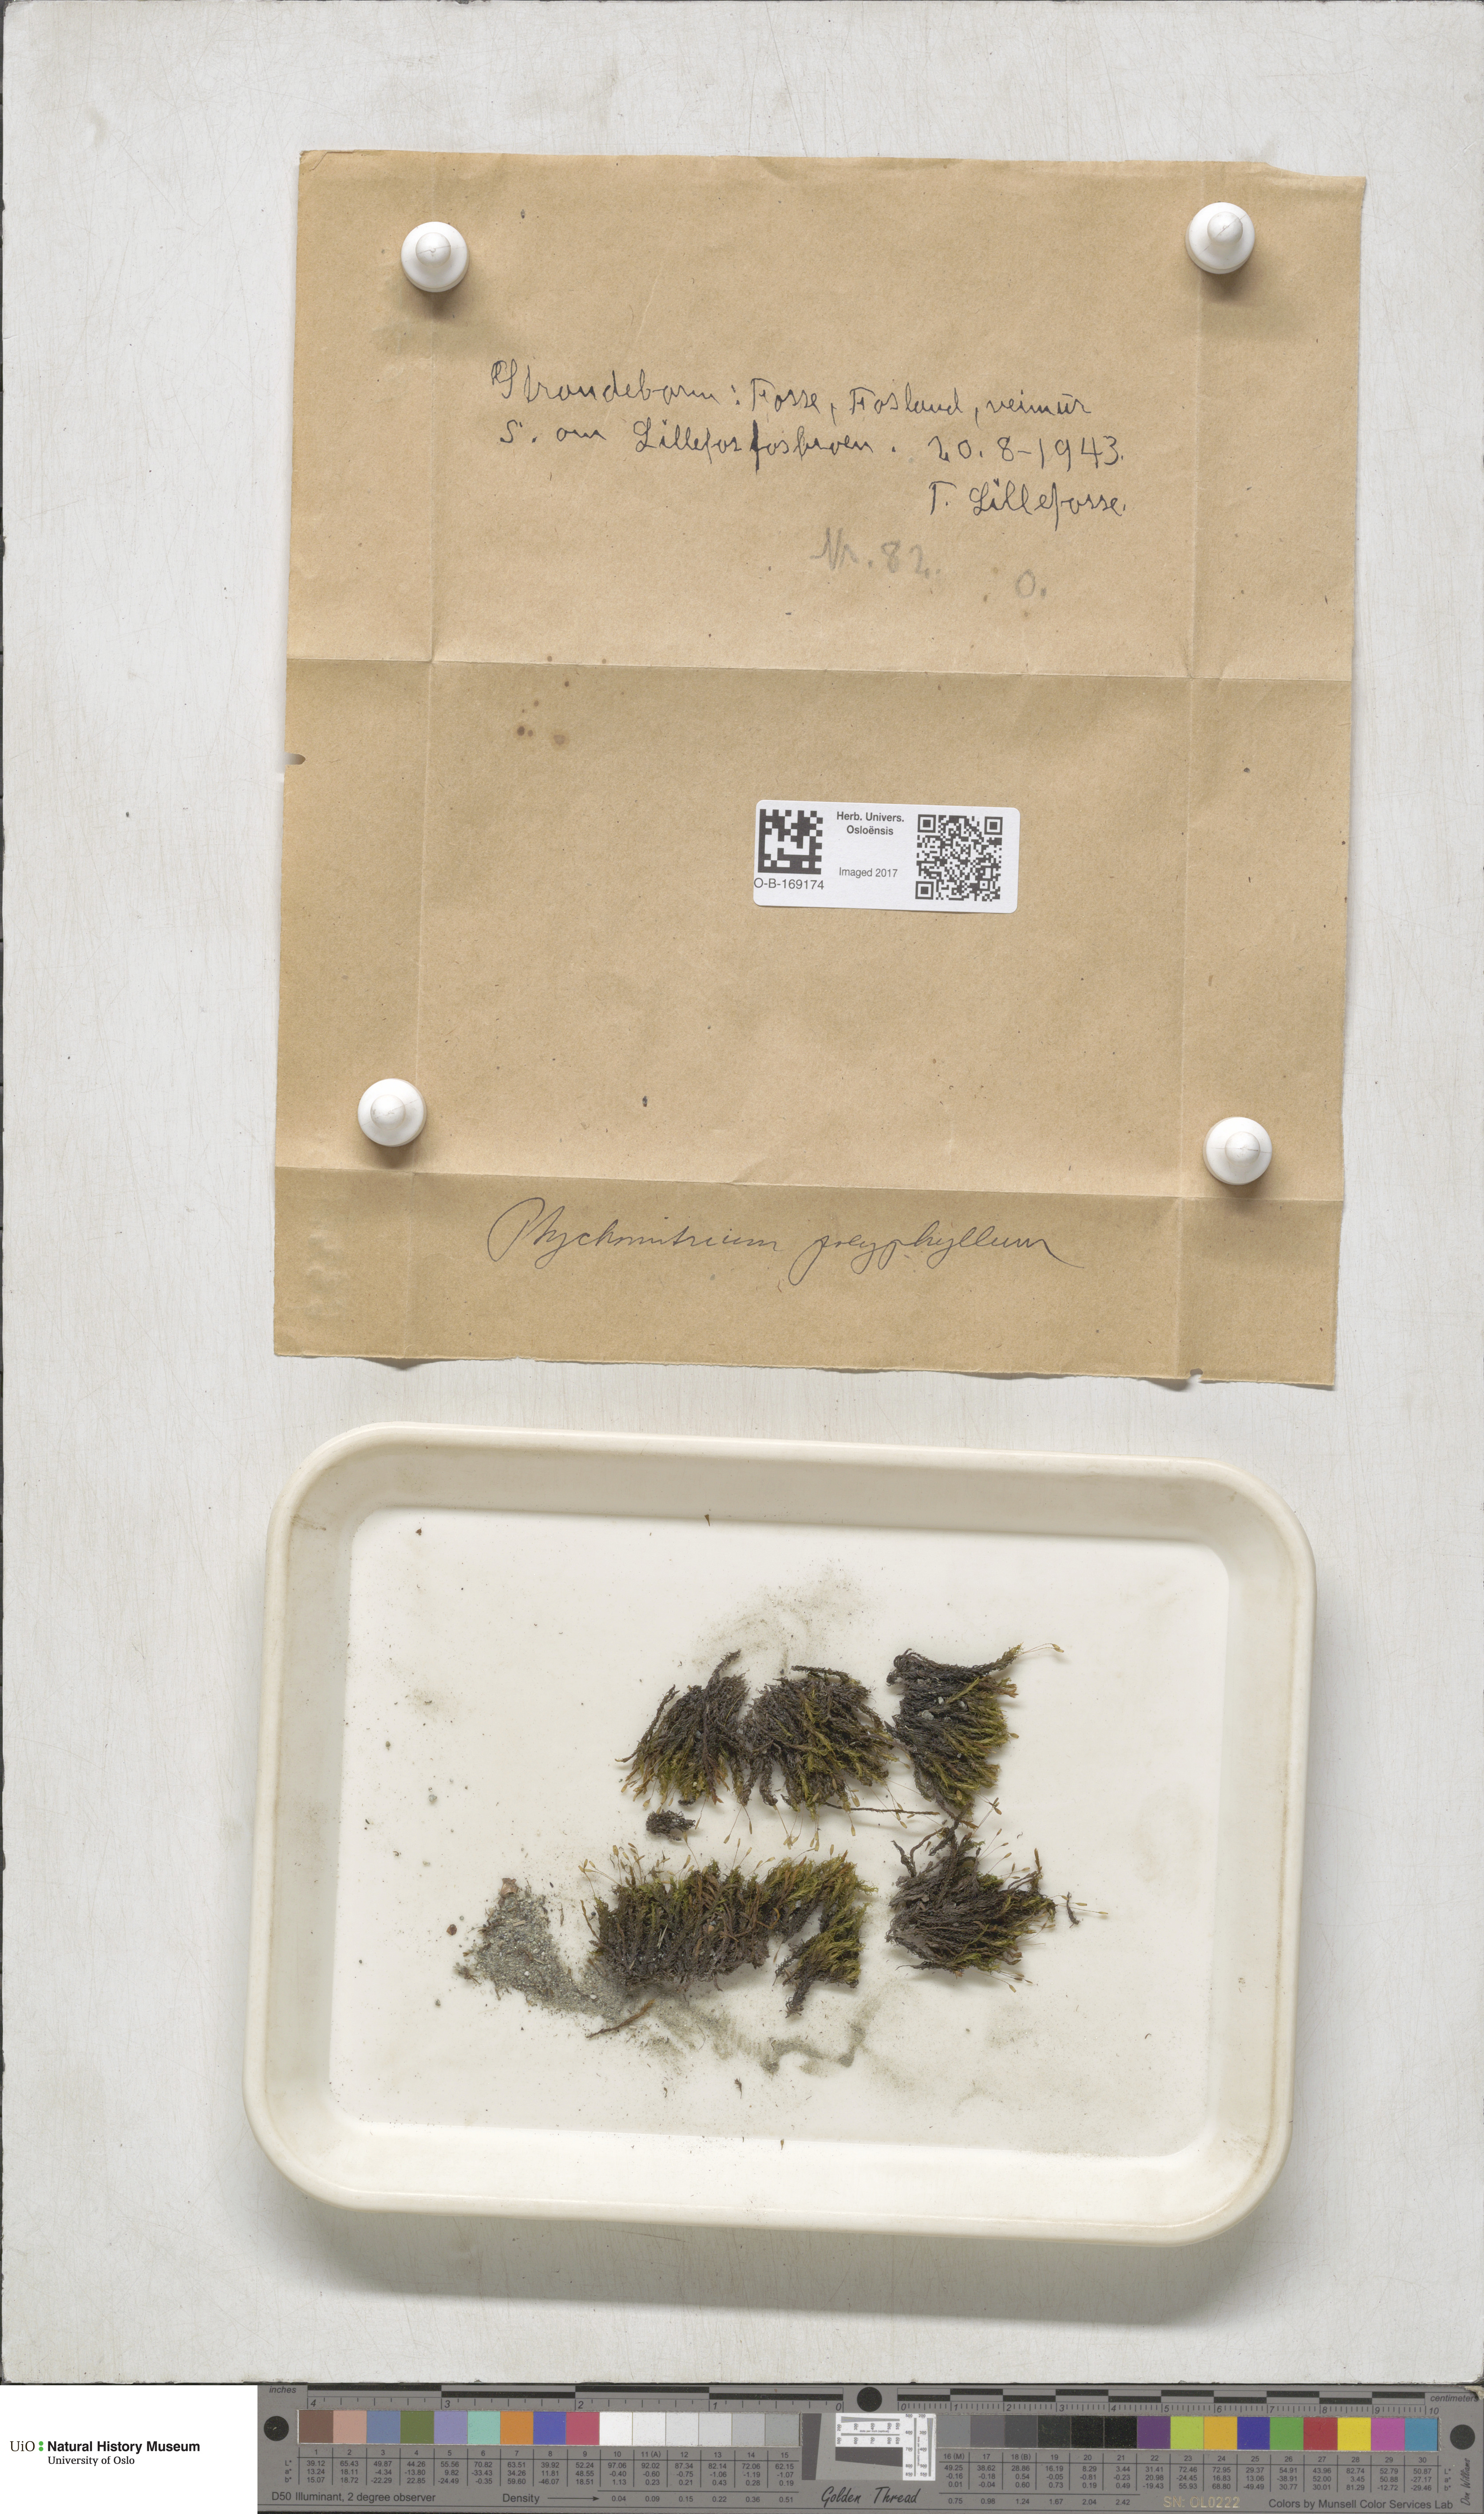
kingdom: Plantae
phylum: Bryophyta
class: Bryopsida
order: Grimmiales
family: Ptychomitriaceae
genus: Ptychomitrium
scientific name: Ptychomitrium polyphyllum
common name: Greater pincushion
